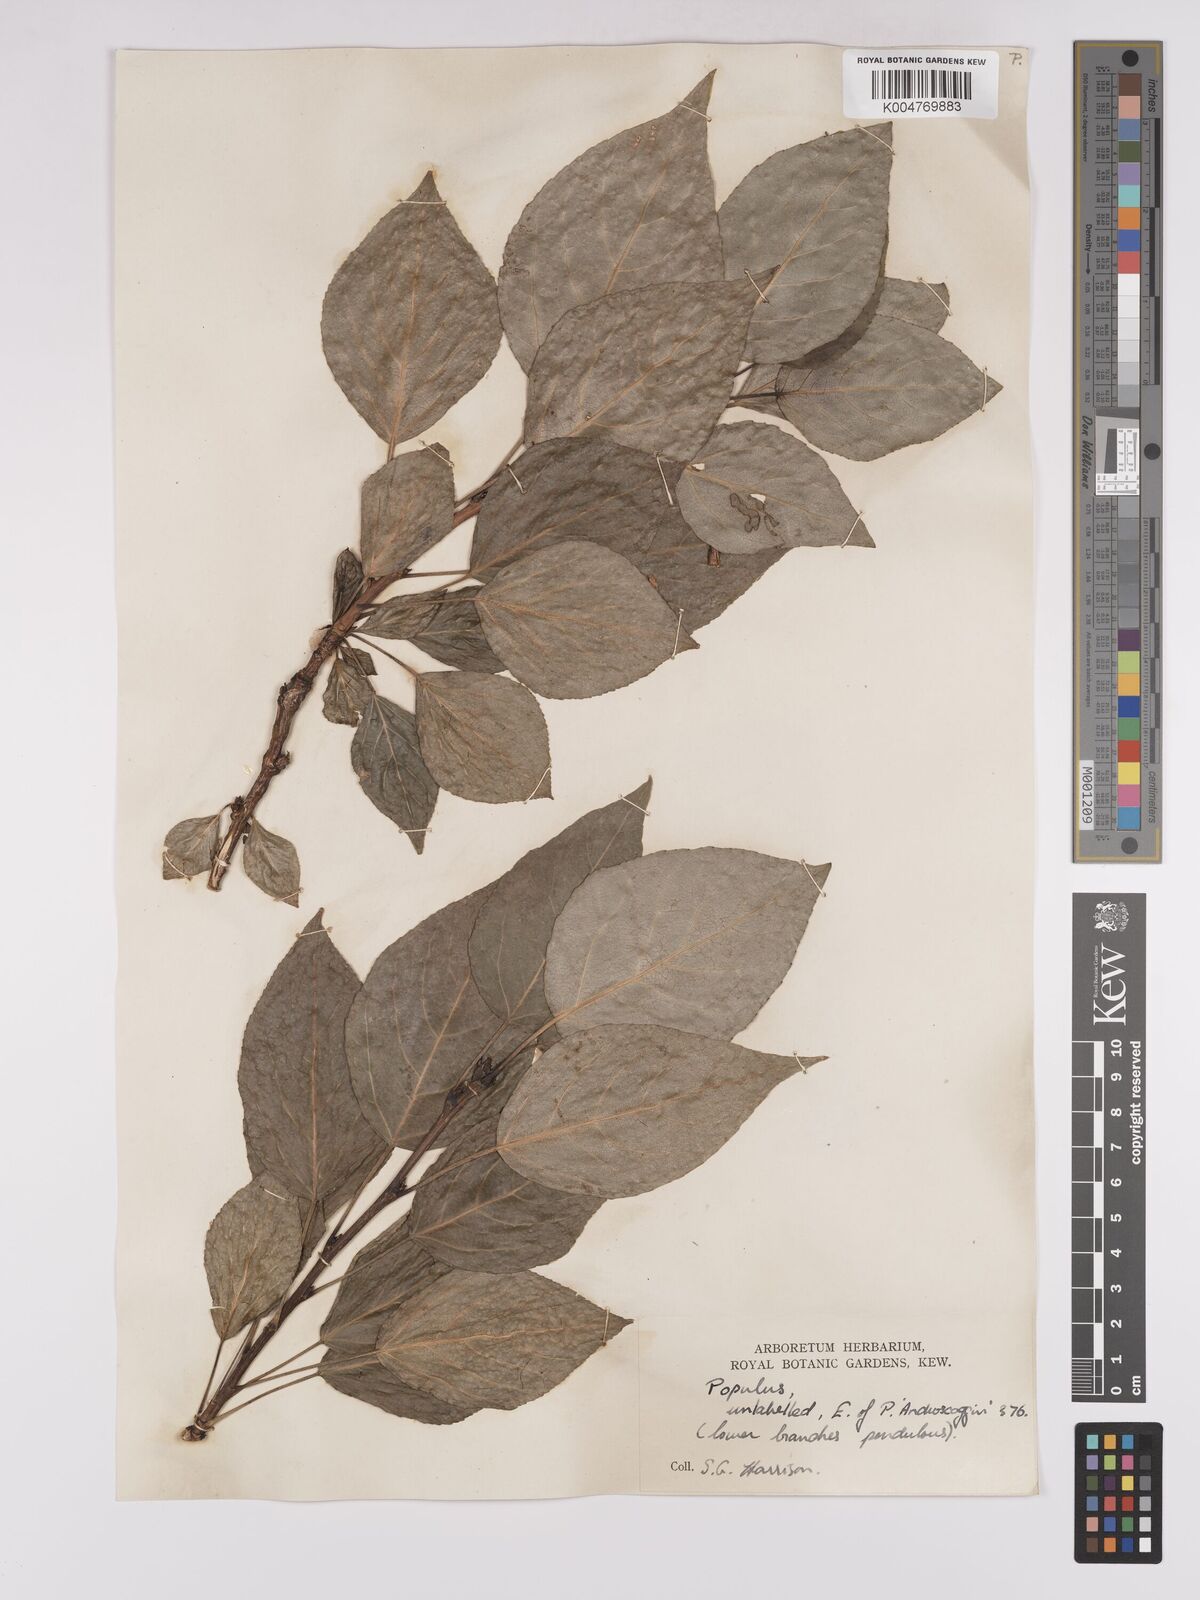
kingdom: Plantae
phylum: Tracheophyta
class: Magnoliopsida
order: Malpighiales
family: Salicaceae
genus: Populus
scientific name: Populus dubia
